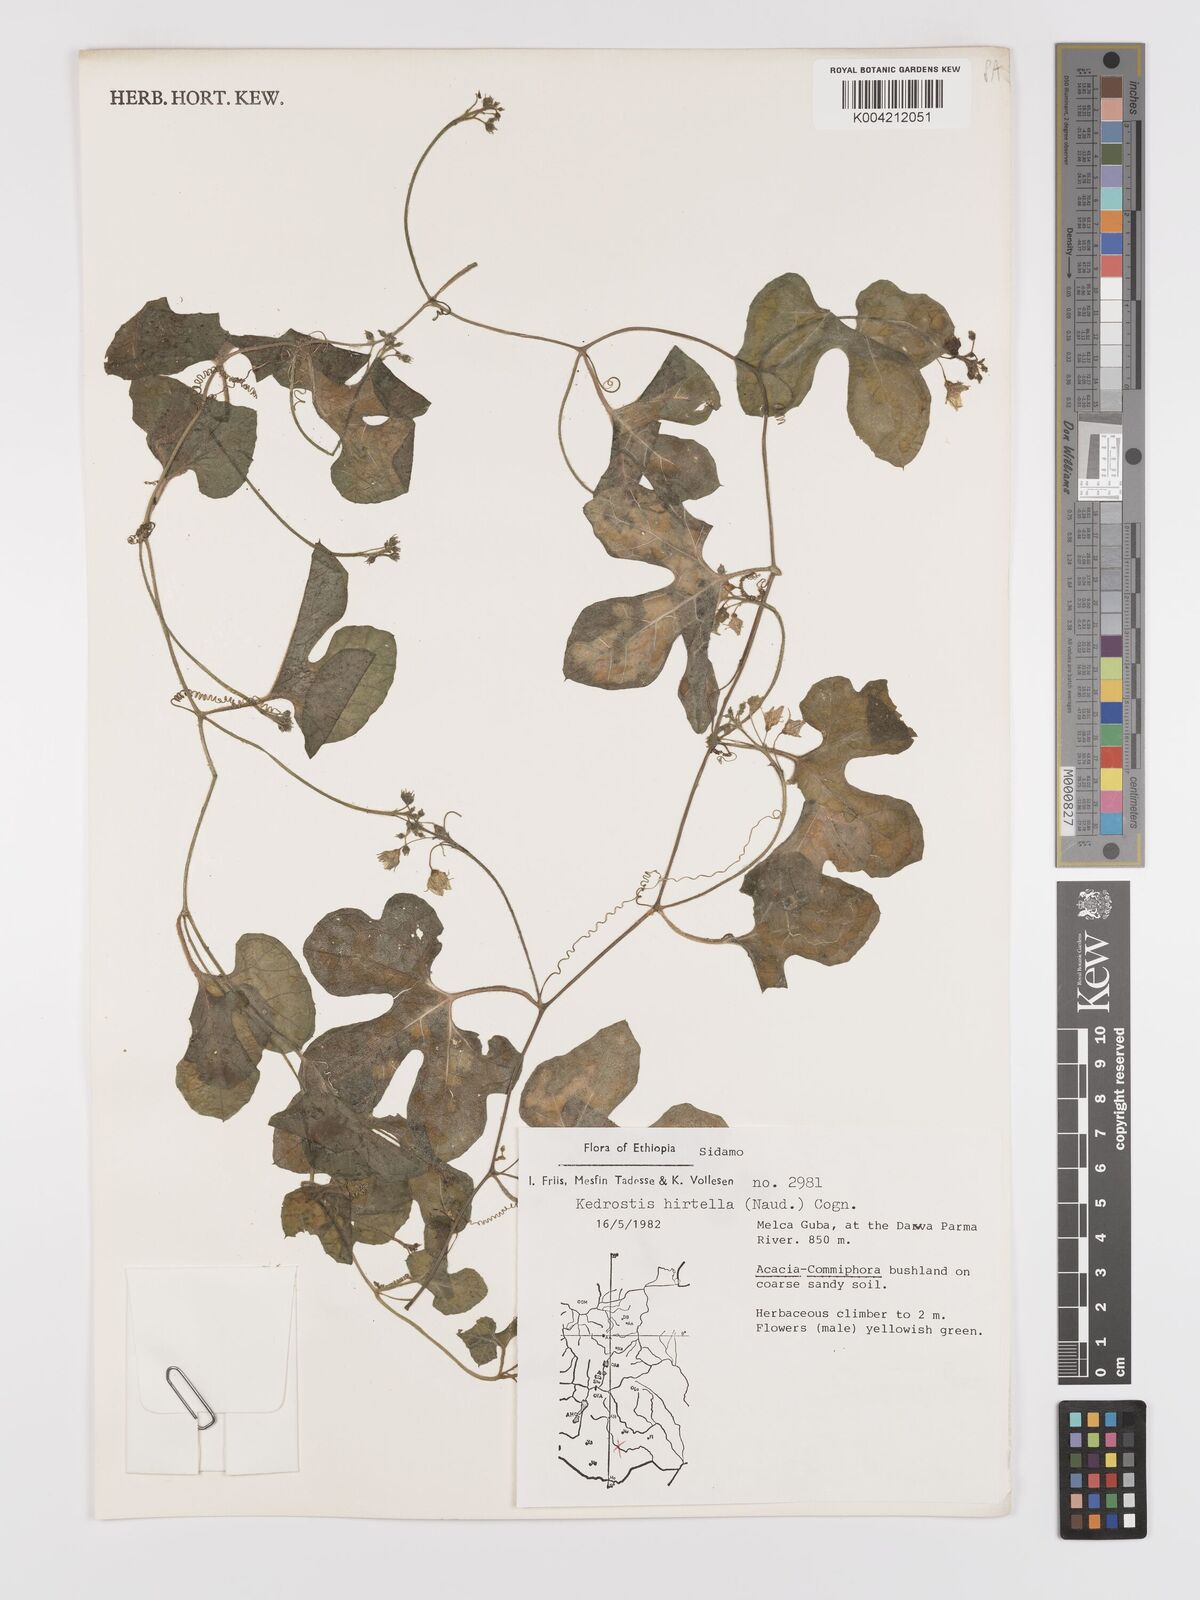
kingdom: Plantae
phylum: Tracheophyta
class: Magnoliopsida
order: Cucurbitales
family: Cucurbitaceae
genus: Kedrostis
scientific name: Kedrostis leloja
